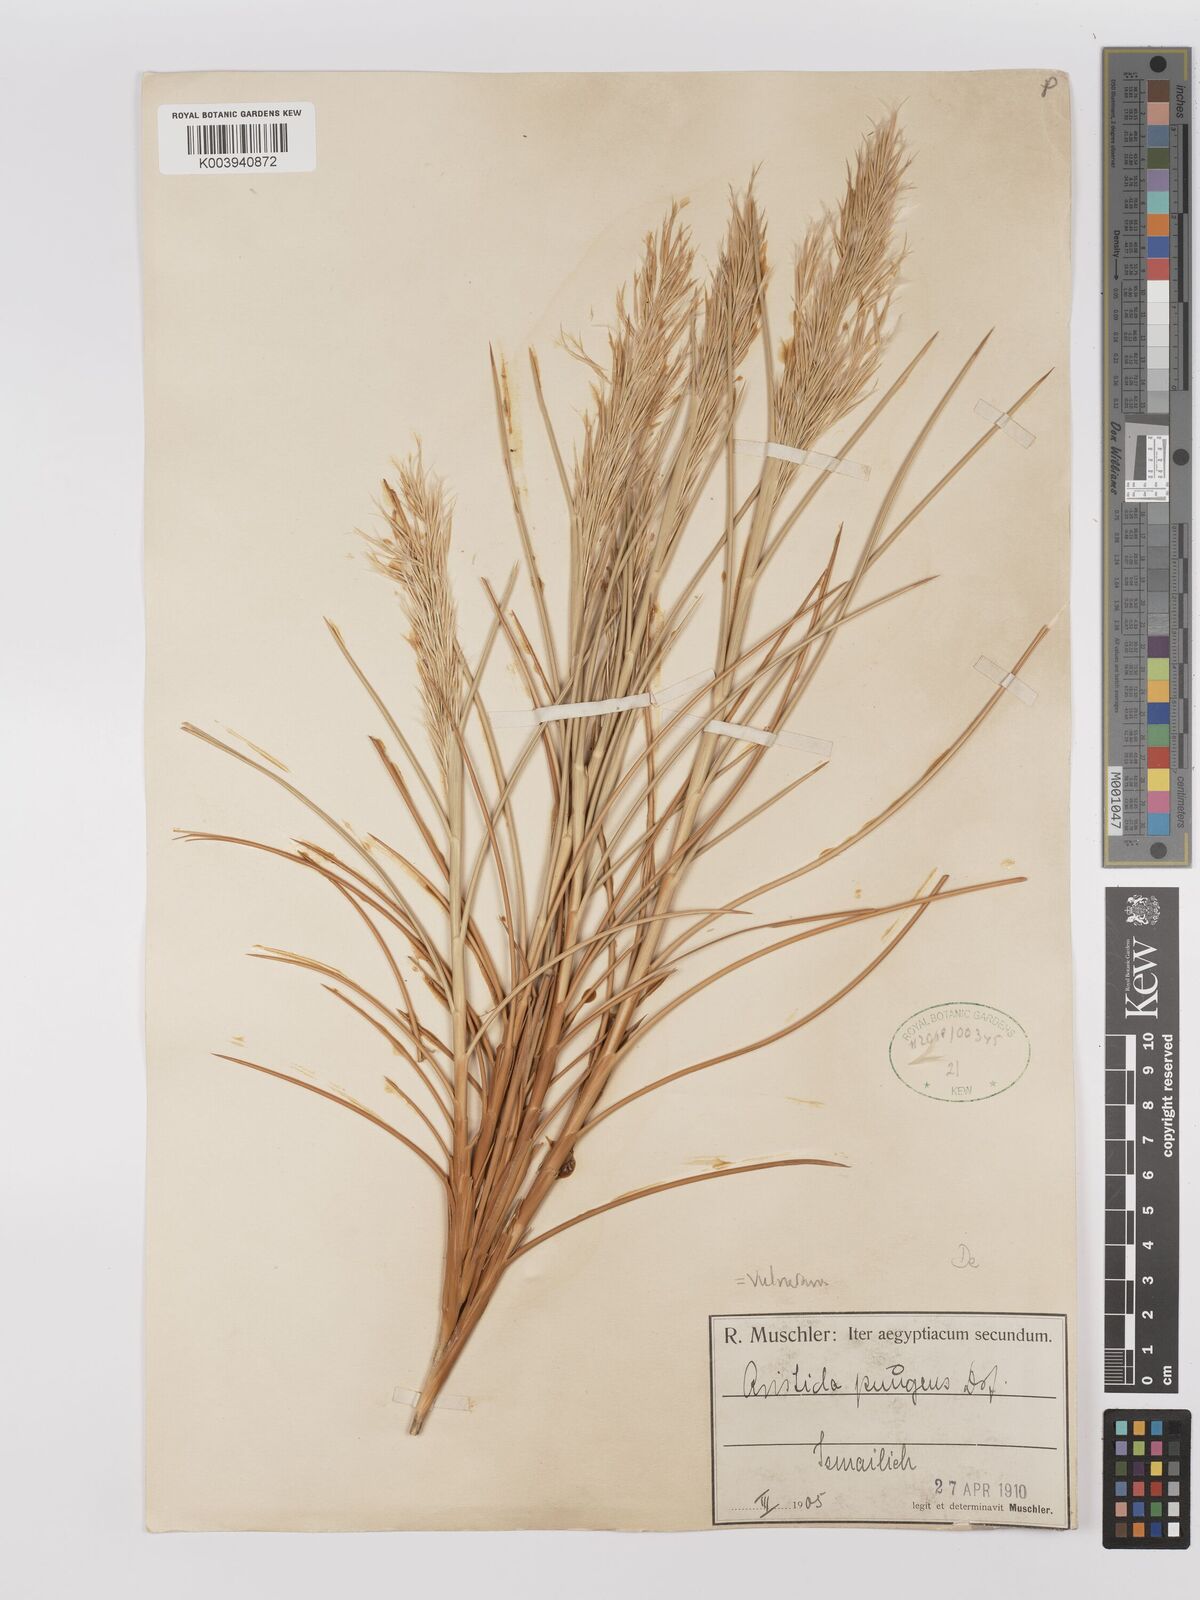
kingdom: Plantae
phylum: Tracheophyta
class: Liliopsida
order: Poales
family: Poaceae
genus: Stipagrostis
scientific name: Stipagrostis vulnerans
